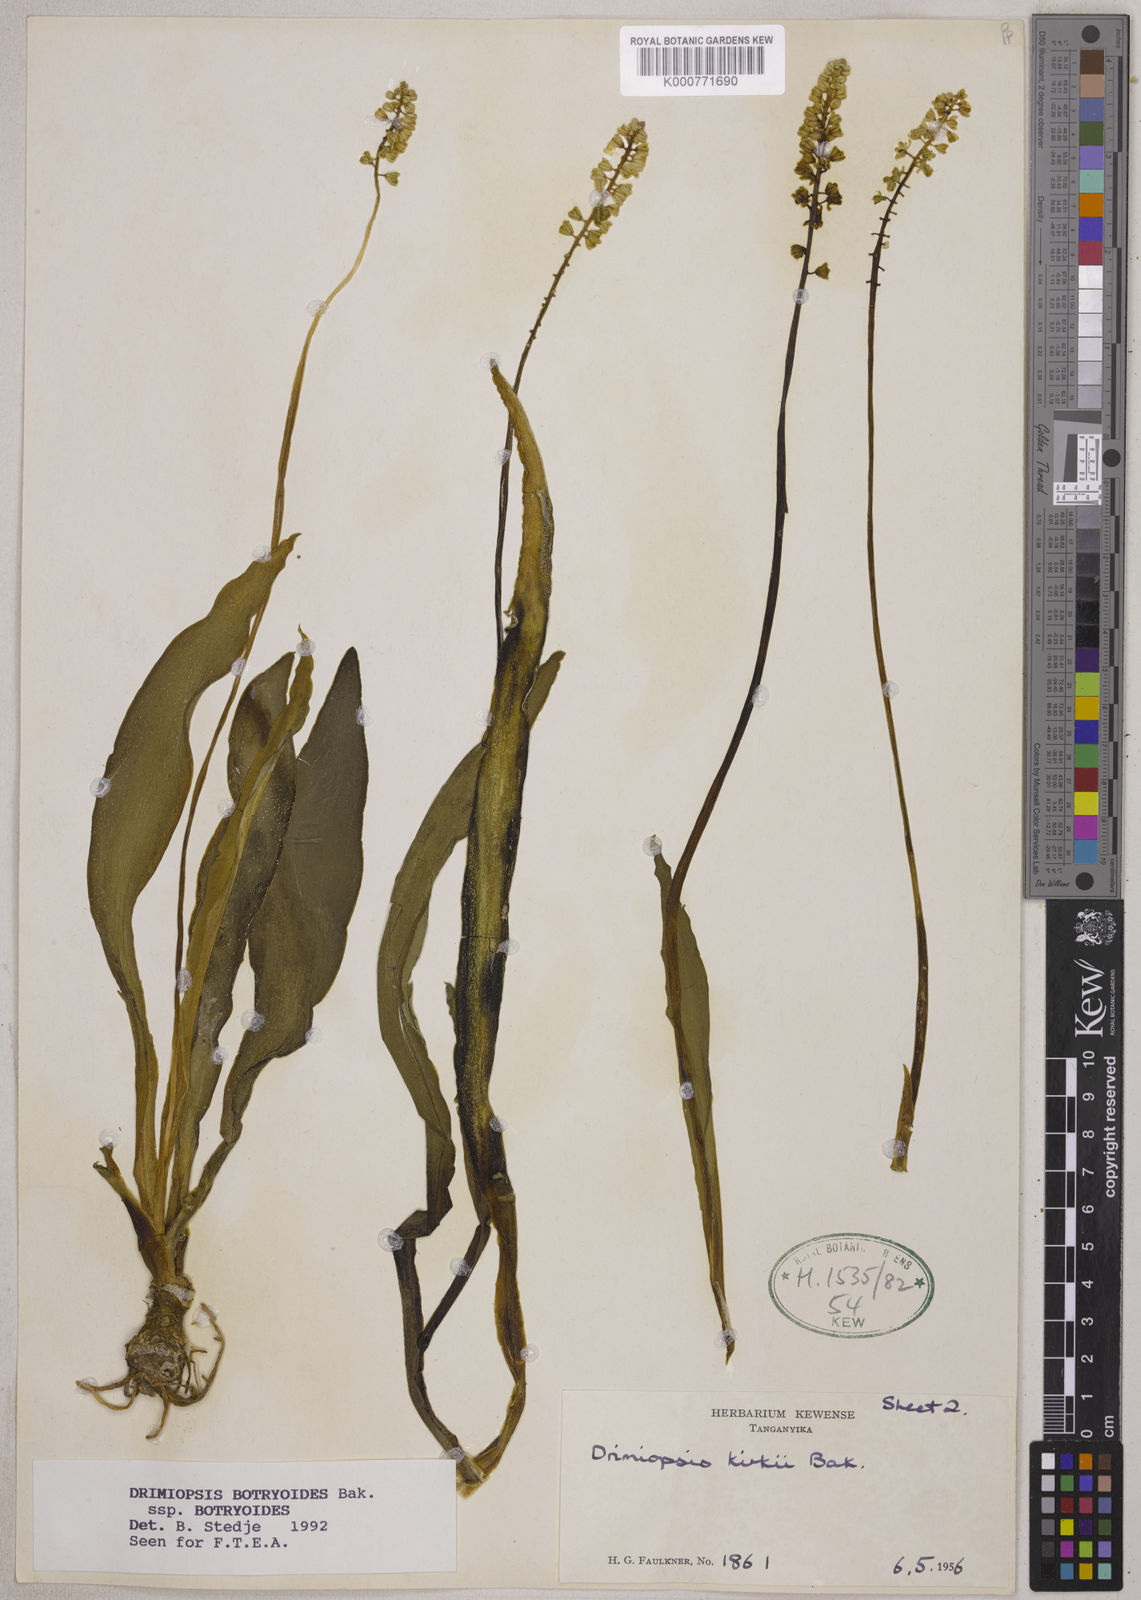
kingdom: Plantae
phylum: Tracheophyta
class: Liliopsida
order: Asparagales
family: Asparagaceae
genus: Drimiopsis
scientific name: Drimiopsis botryoides
